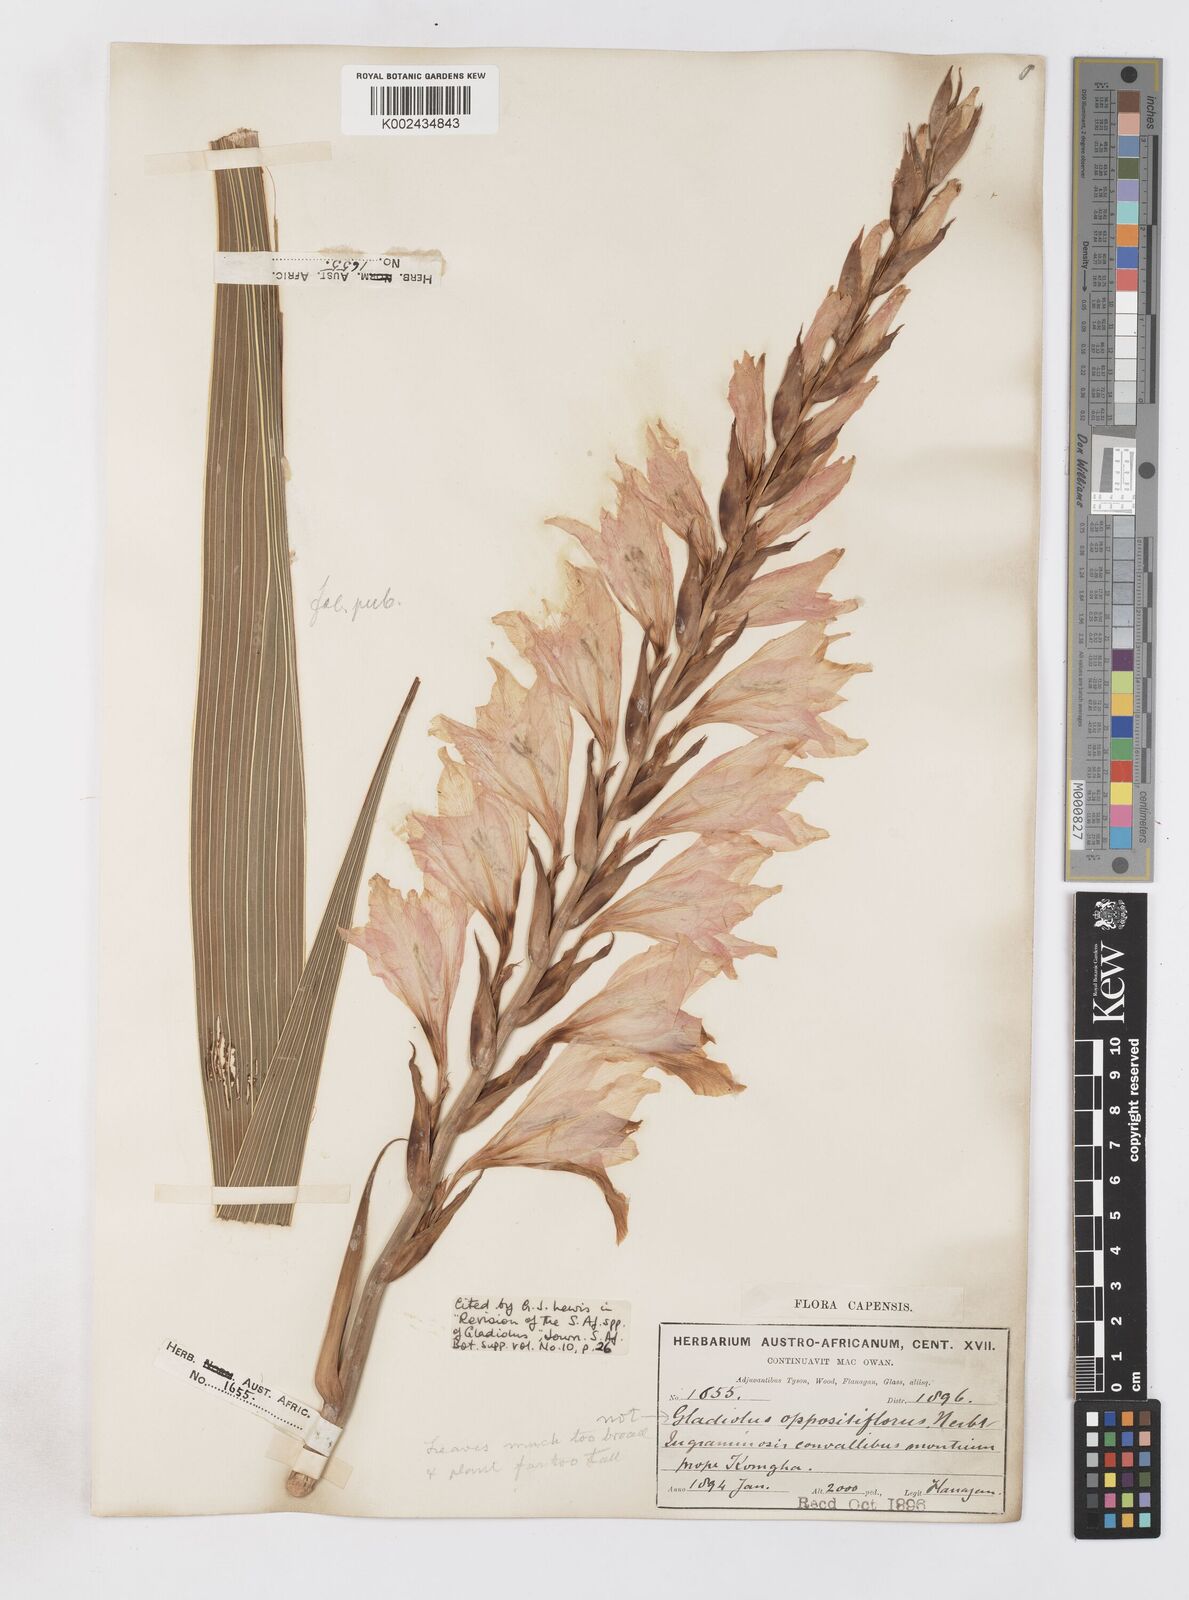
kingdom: Plantae
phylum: Tracheophyta
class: Liliopsida
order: Asparagales
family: Iridaceae
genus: Gladiolus
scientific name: Gladiolus oppositiflorus
